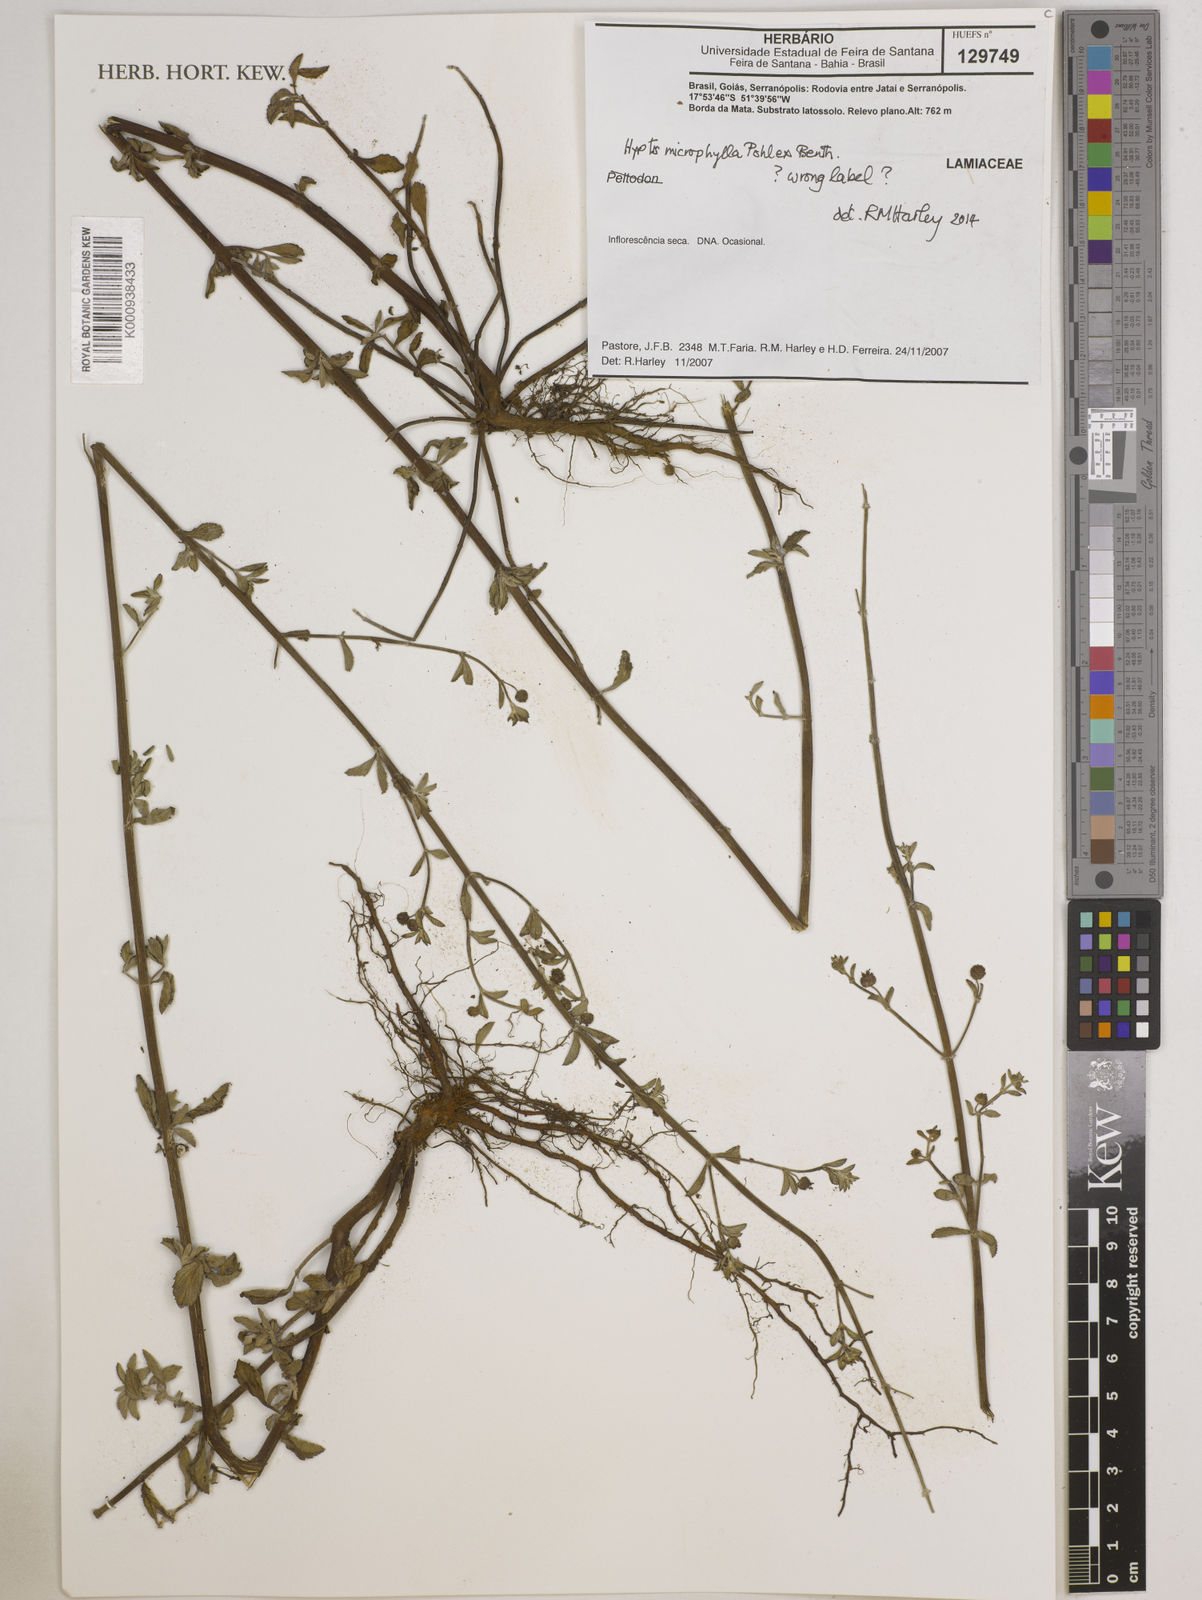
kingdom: Plantae
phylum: Tracheophyta
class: Magnoliopsida
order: Lamiales
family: Lamiaceae
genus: Hyptis
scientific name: Hyptis microphylla
